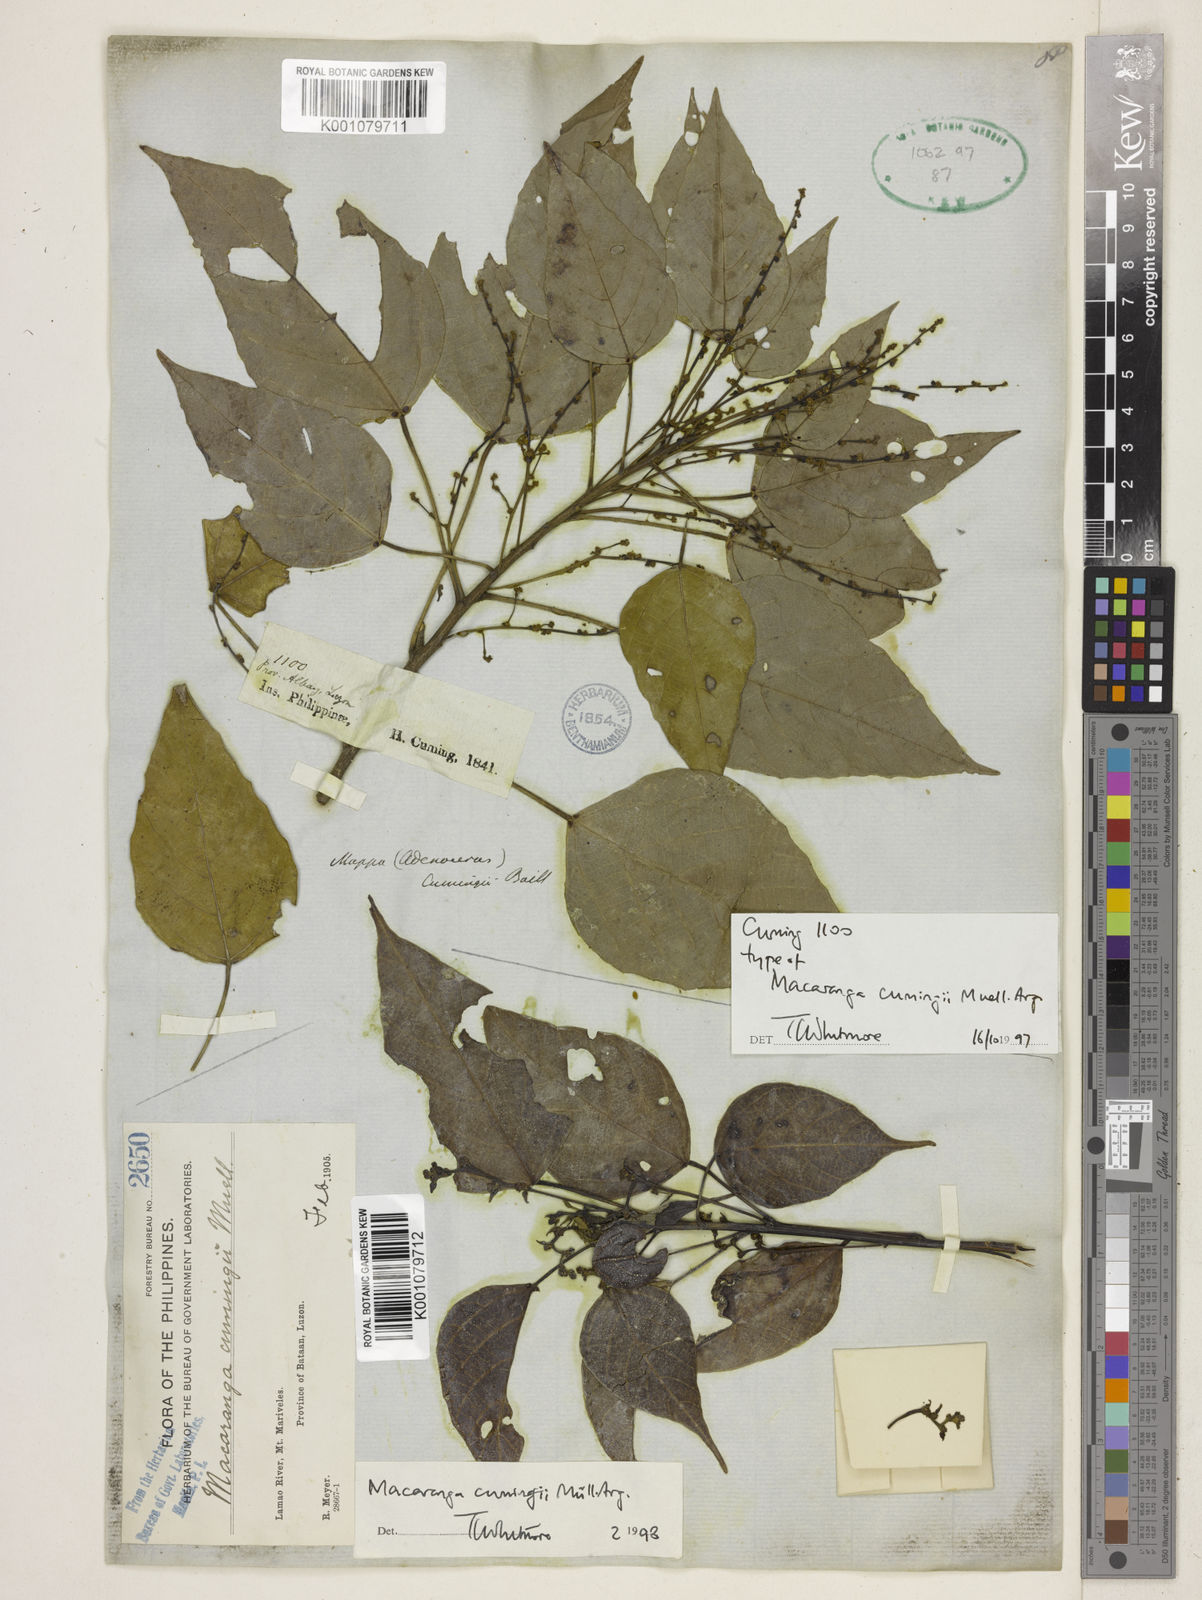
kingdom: Plantae
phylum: Tracheophyta
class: Magnoliopsida
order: Malpighiales
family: Euphorbiaceae
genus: Macaranga
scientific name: Macaranga
